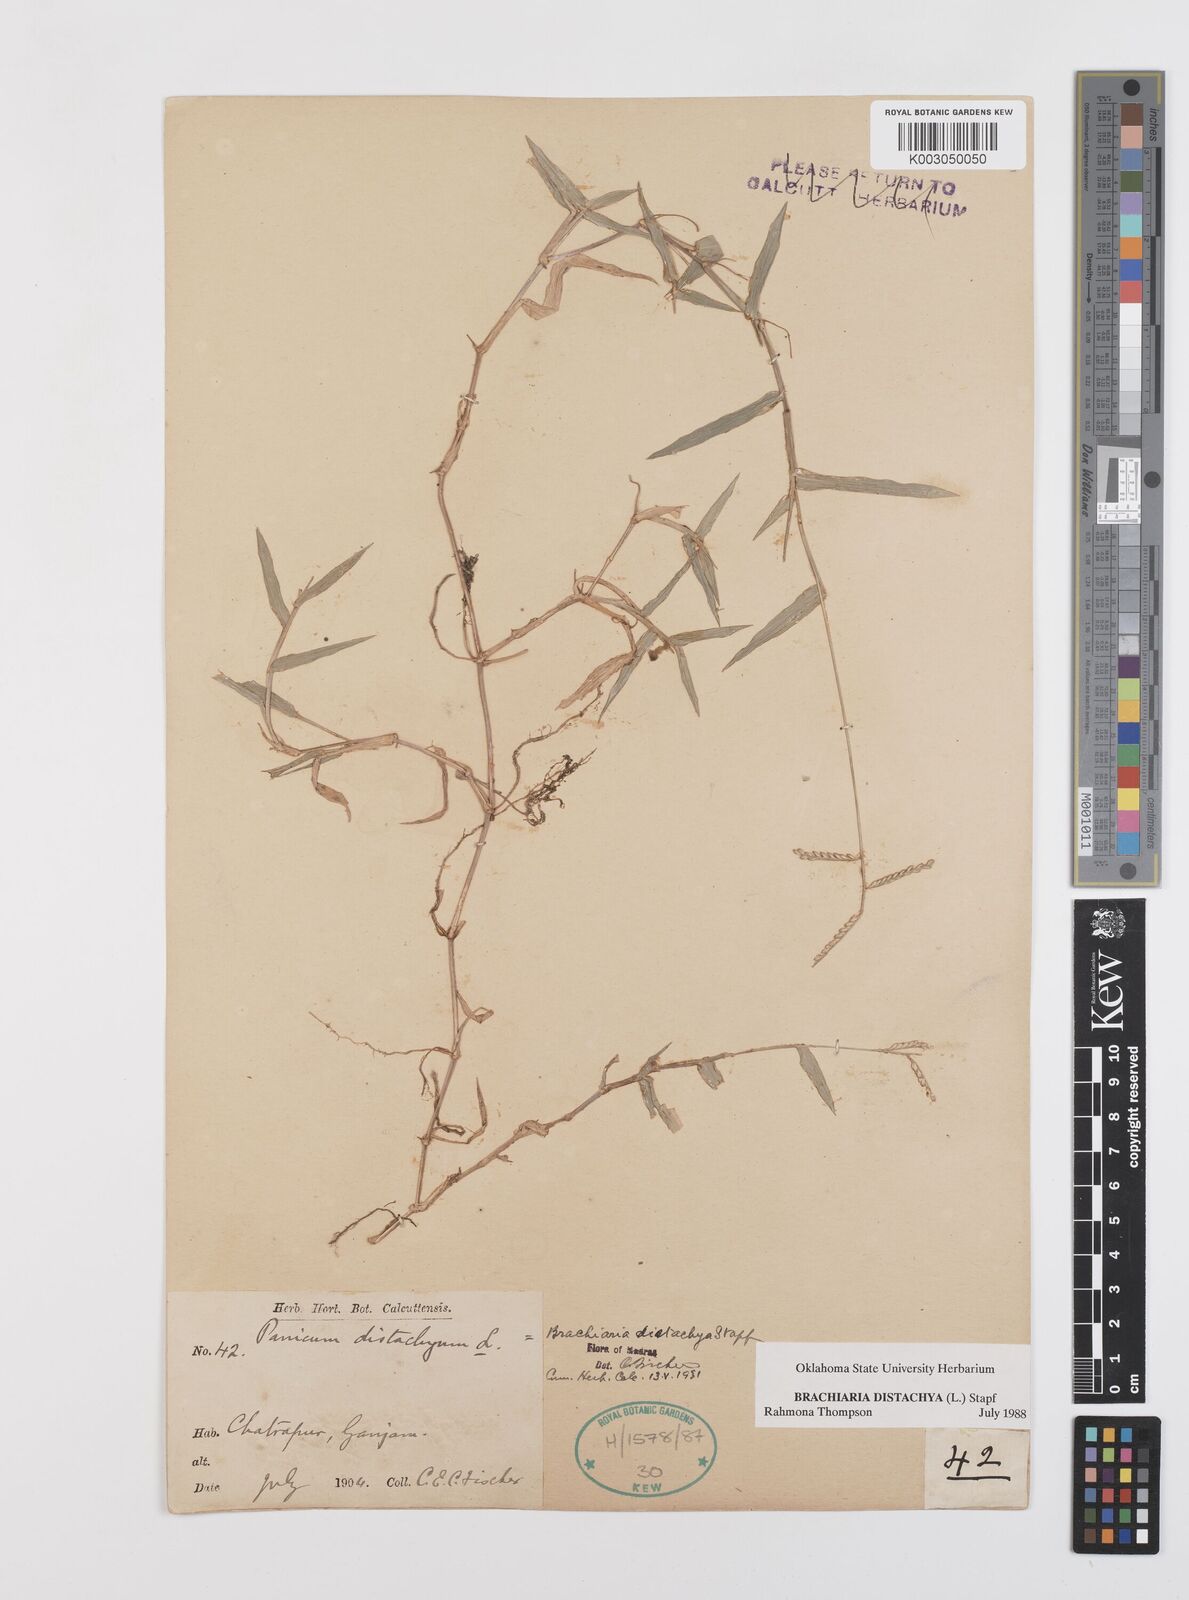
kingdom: Plantae
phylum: Tracheophyta
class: Liliopsida
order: Poales
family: Poaceae
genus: Urochloa
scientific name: Urochloa distachyos
